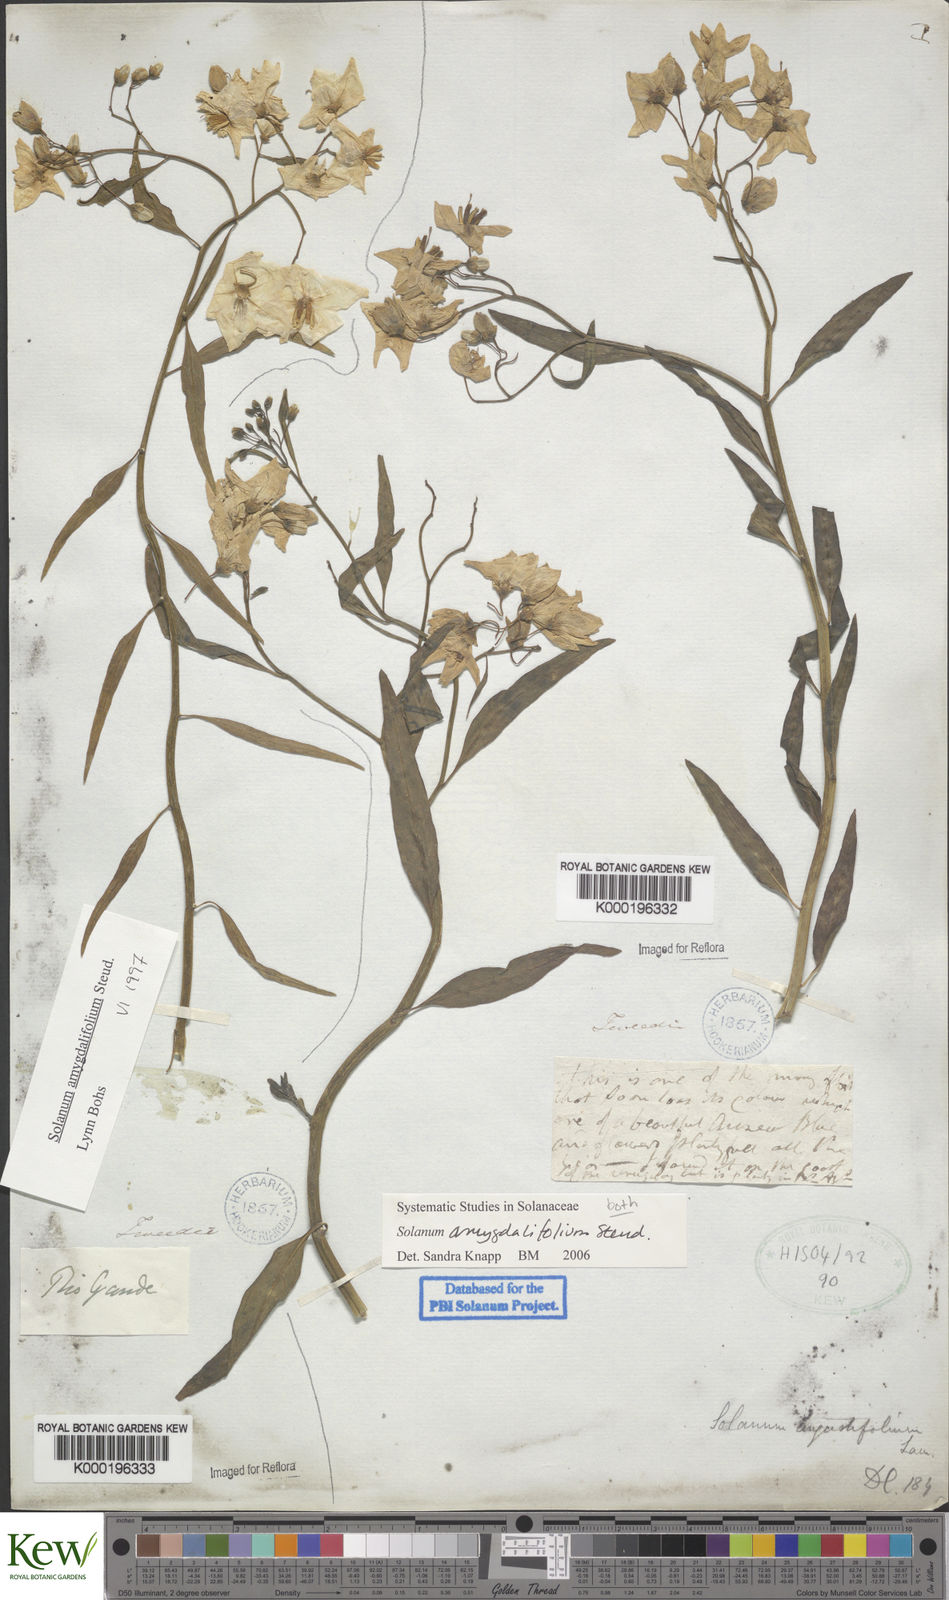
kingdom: Plantae
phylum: Tracheophyta
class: Magnoliopsida
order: Solanales
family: Solanaceae
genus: Solanum
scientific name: Solanum amygdalifolium
